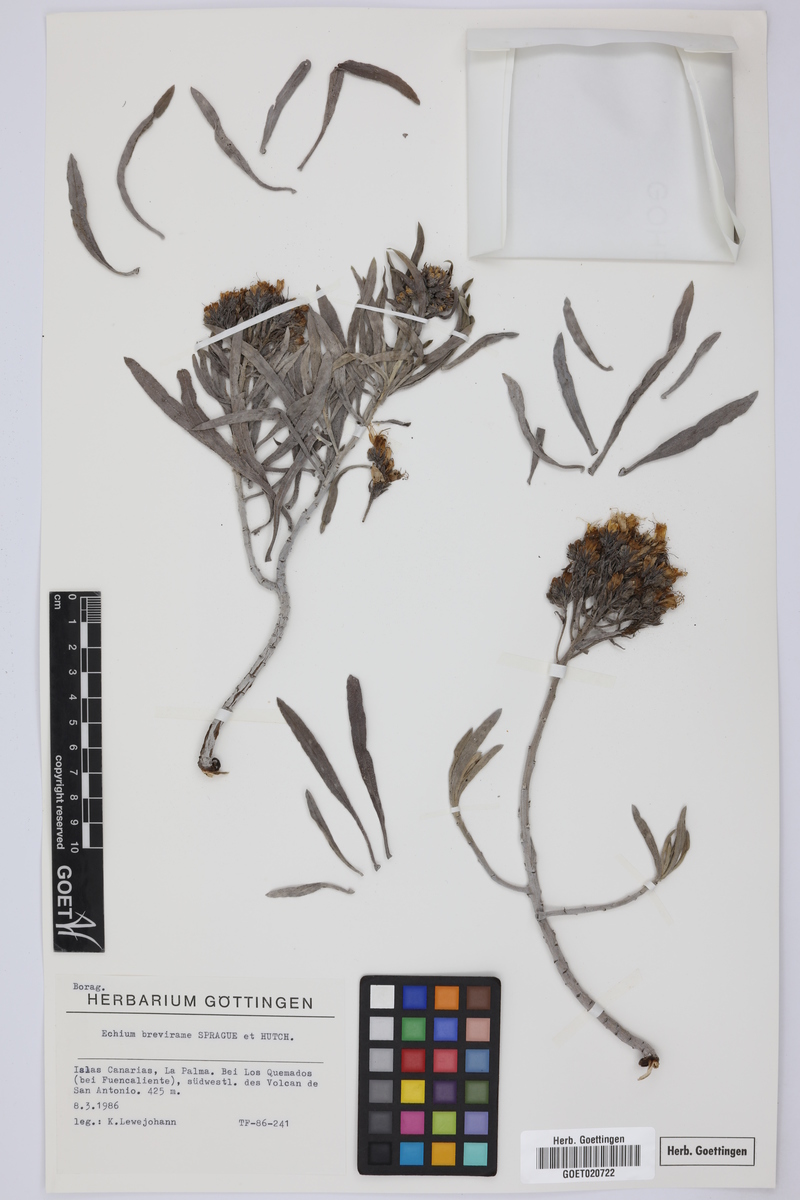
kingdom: Plantae
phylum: Tracheophyta
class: Magnoliopsida
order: Boraginales
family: Boraginaceae
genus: Echium
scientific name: Echium brevirame
